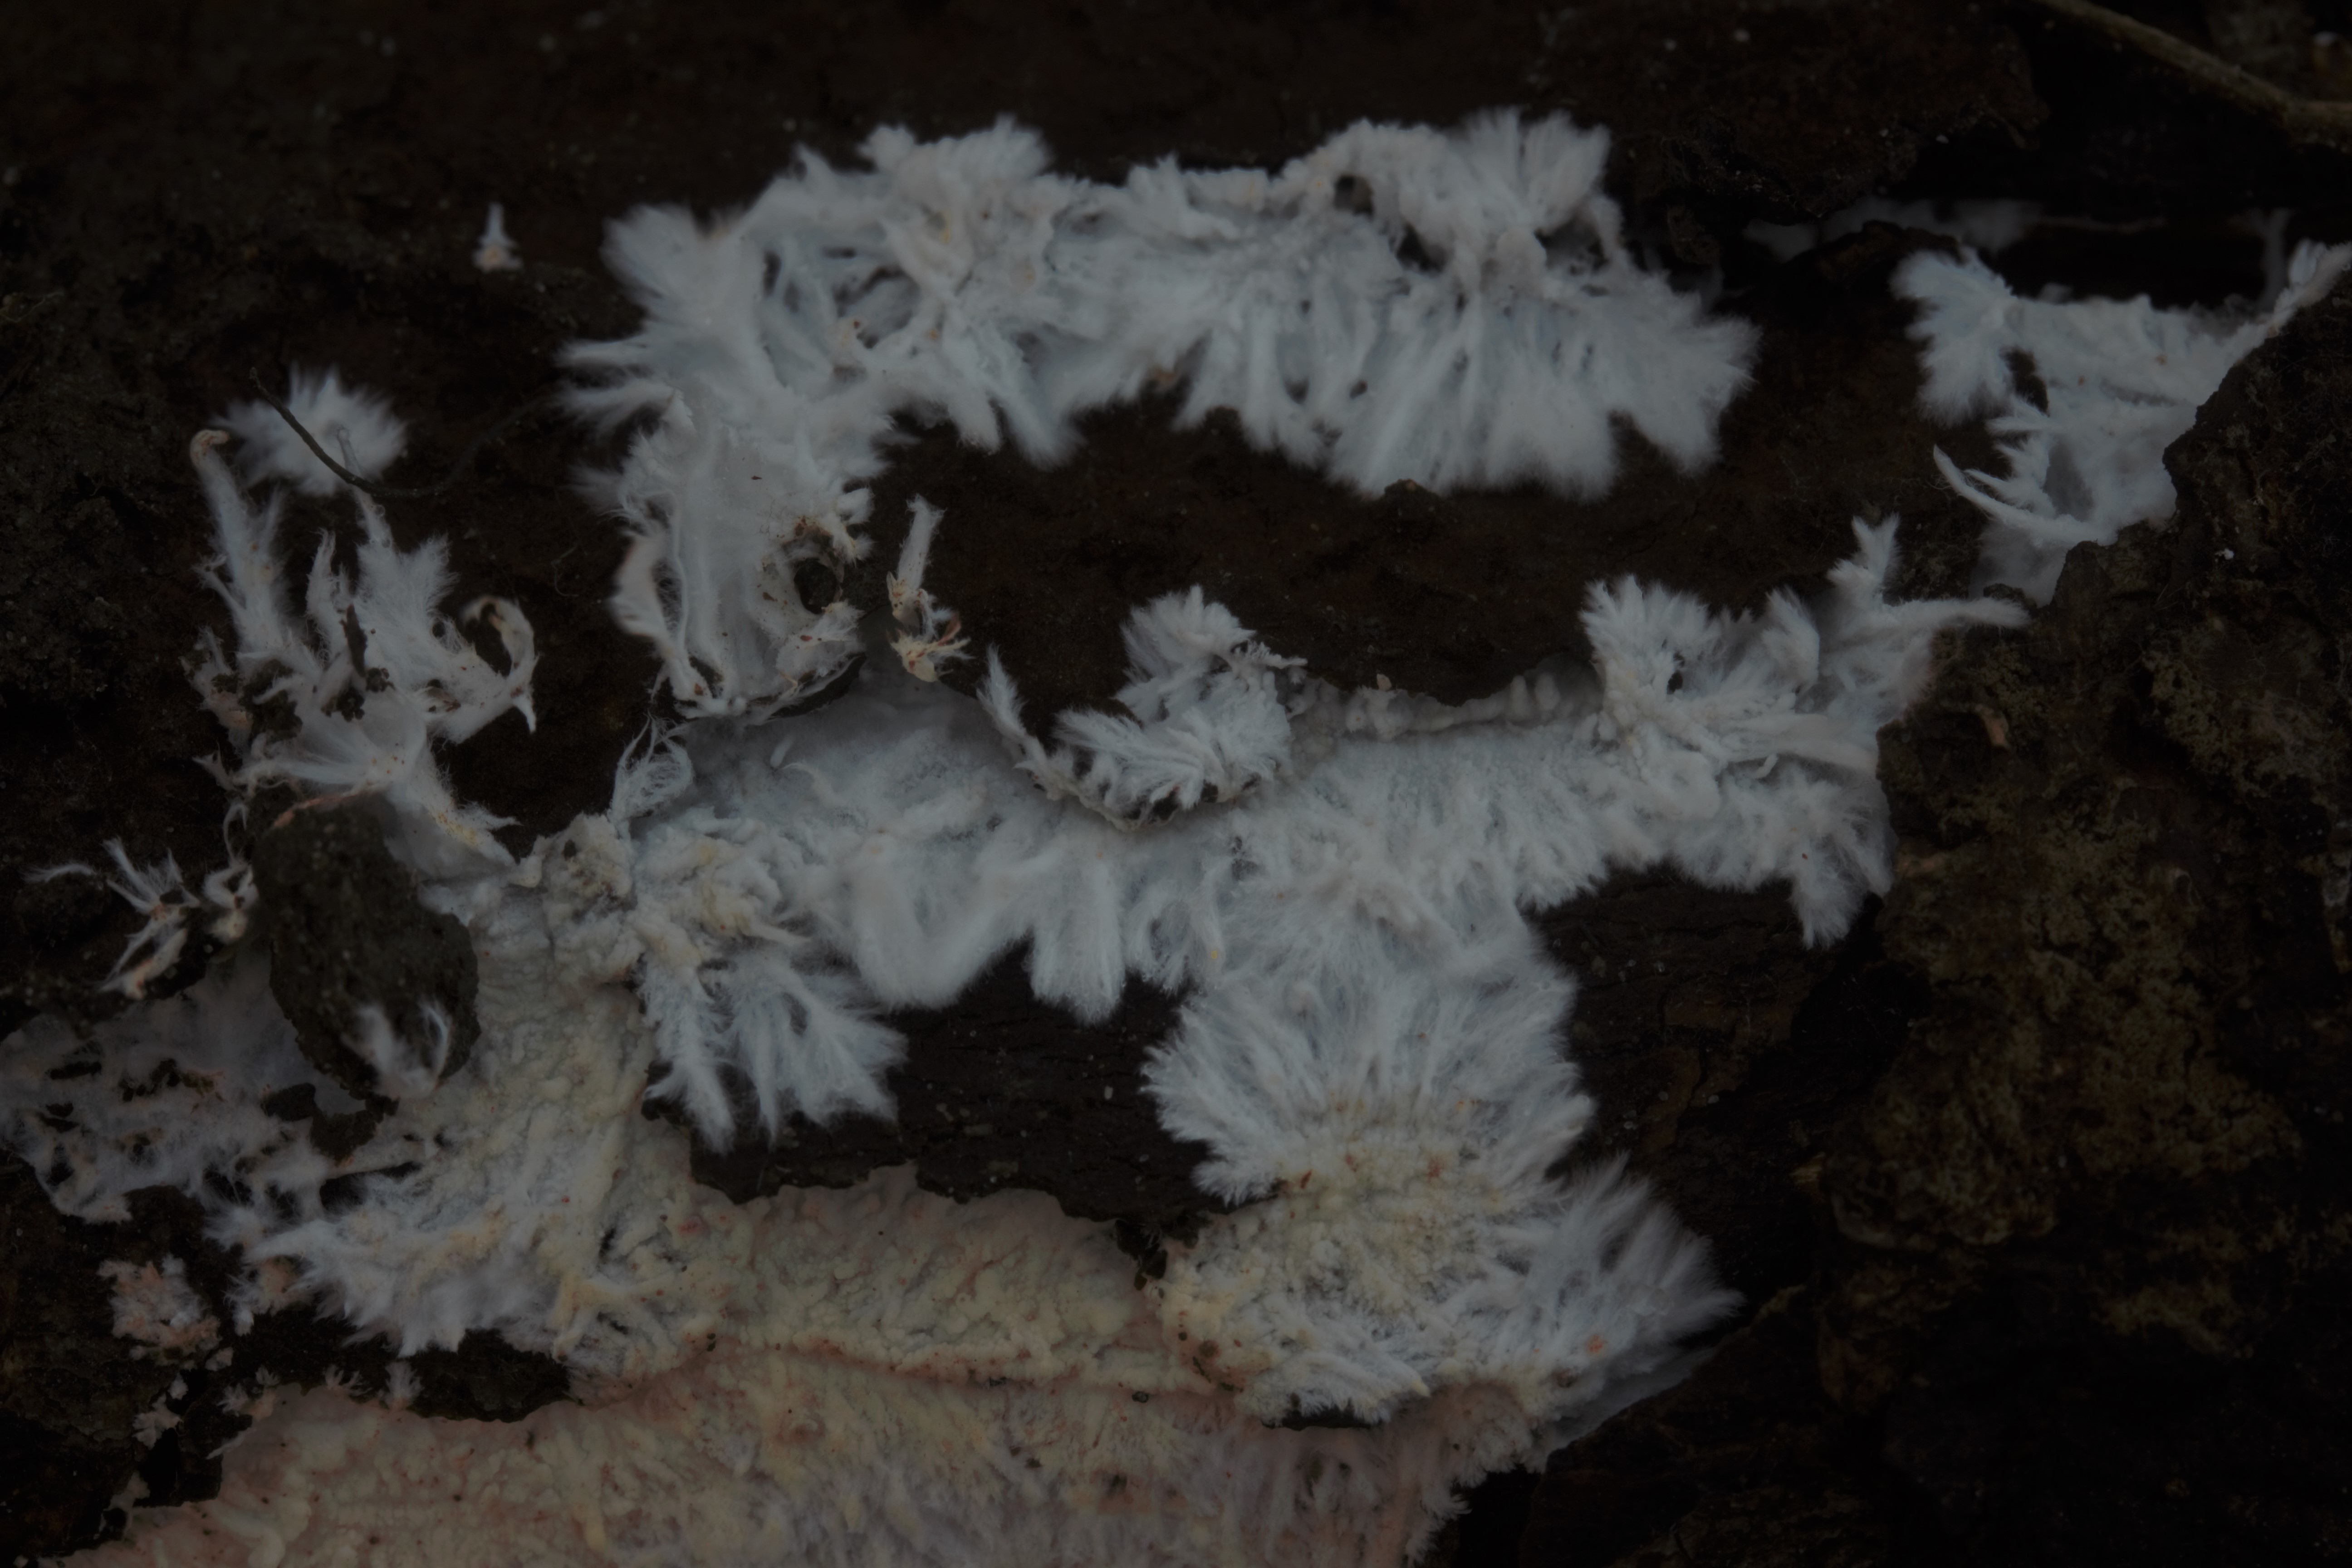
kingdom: Fungi
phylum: Basidiomycota
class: Agaricomycetes
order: Hymenochaetales
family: Rickenellaceae
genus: Odonticium
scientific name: Odonticium flabelliradiatum
